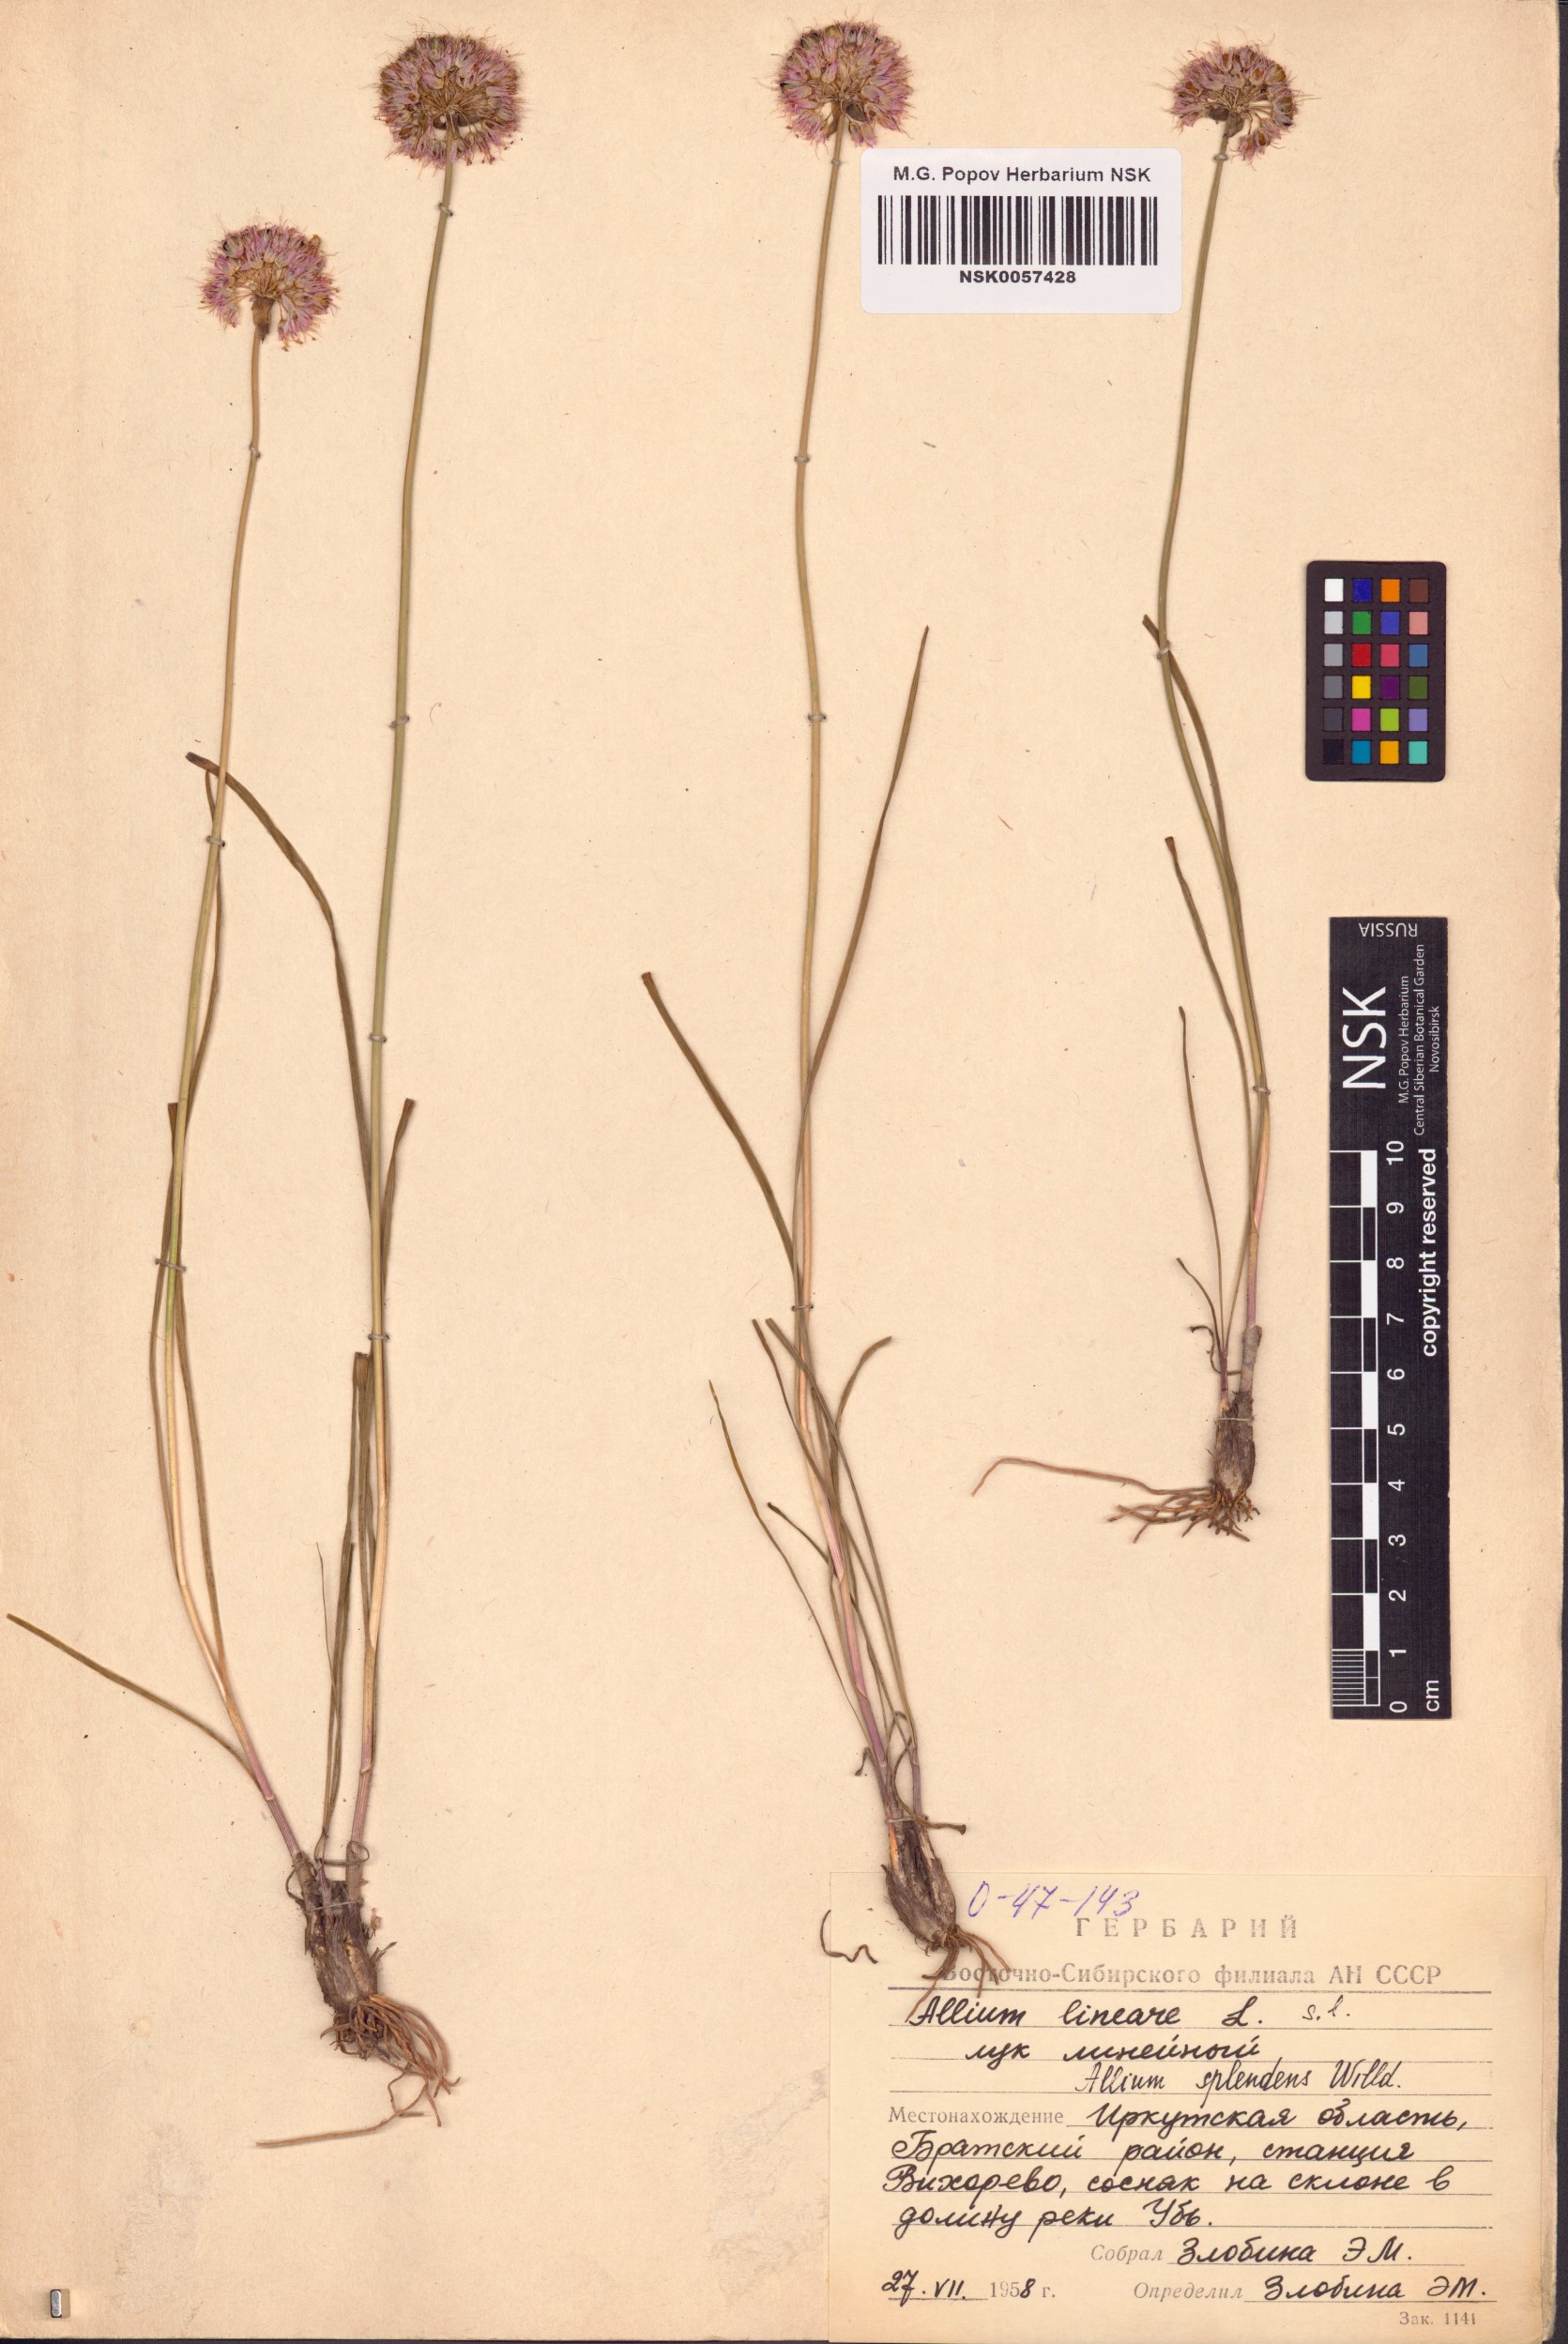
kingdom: Plantae
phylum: Tracheophyta
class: Liliopsida
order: Asparagales
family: Amaryllidaceae
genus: Allium
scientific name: Allium splendens
